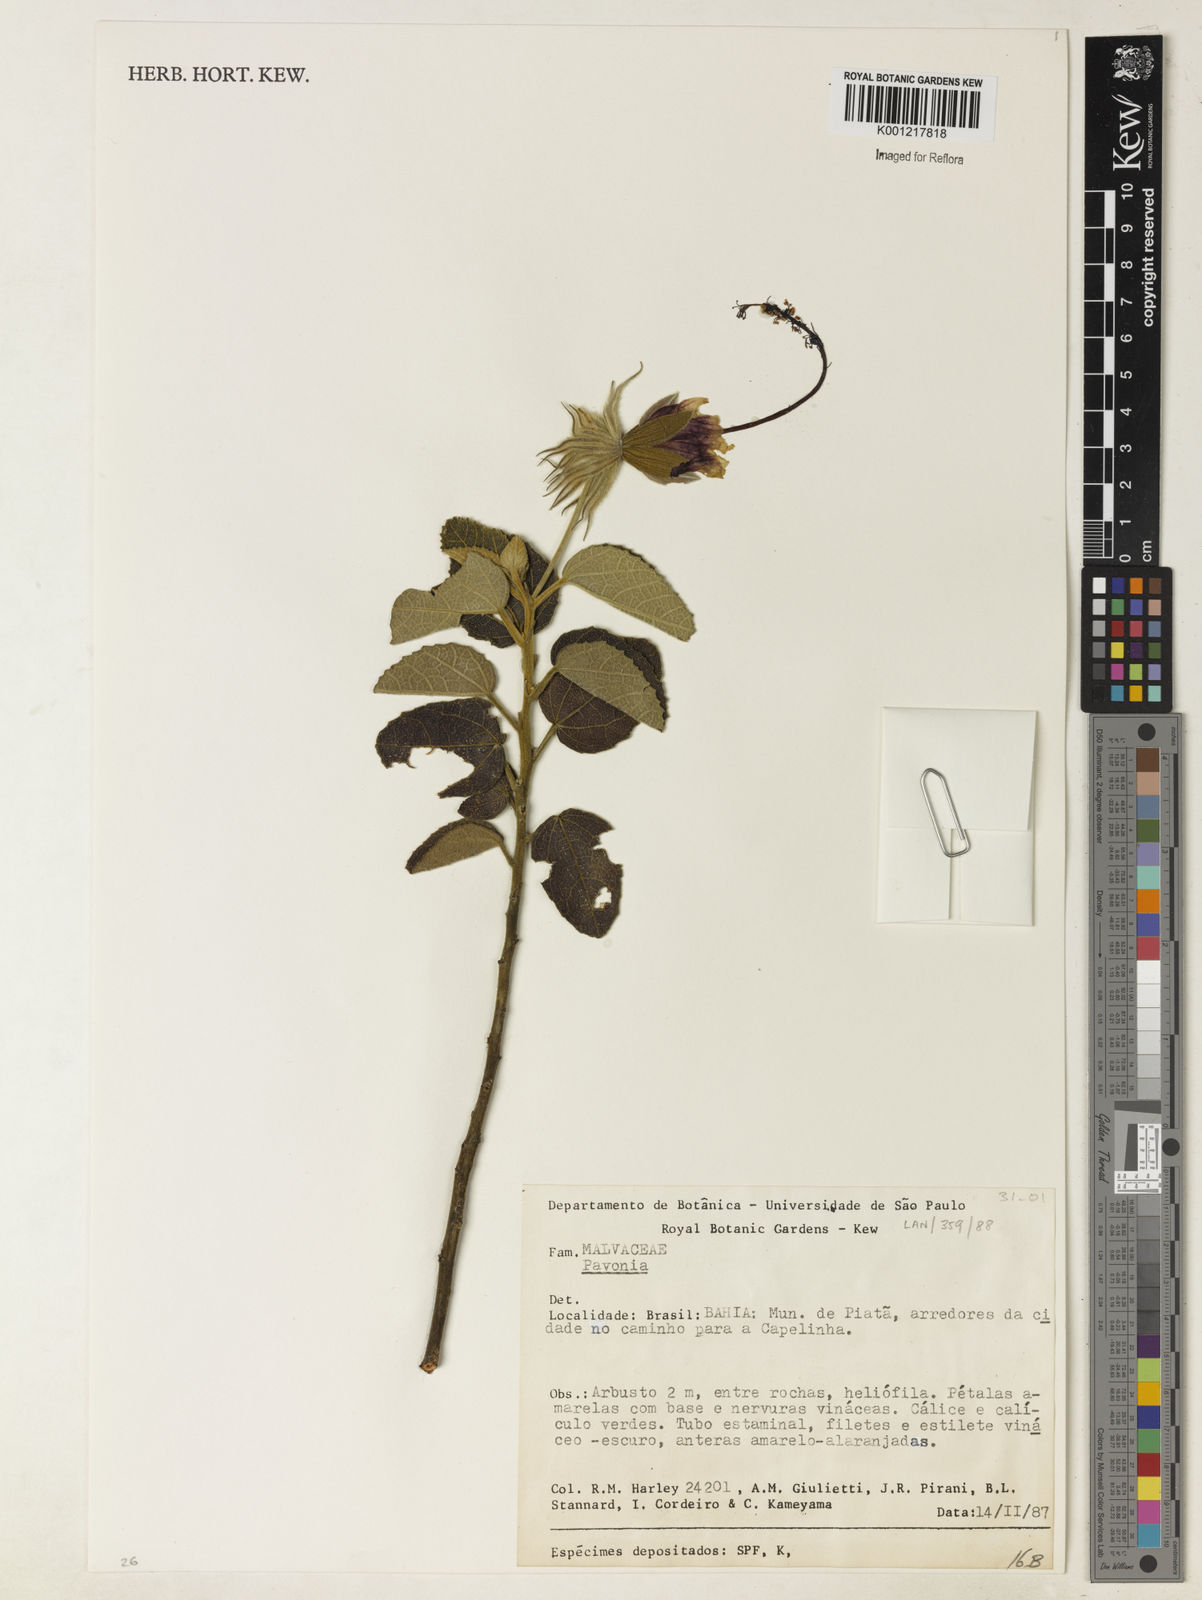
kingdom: Plantae
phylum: Tracheophyta
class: Magnoliopsida
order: Malvales
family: Malvaceae
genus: Pavonia
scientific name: Pavonia
